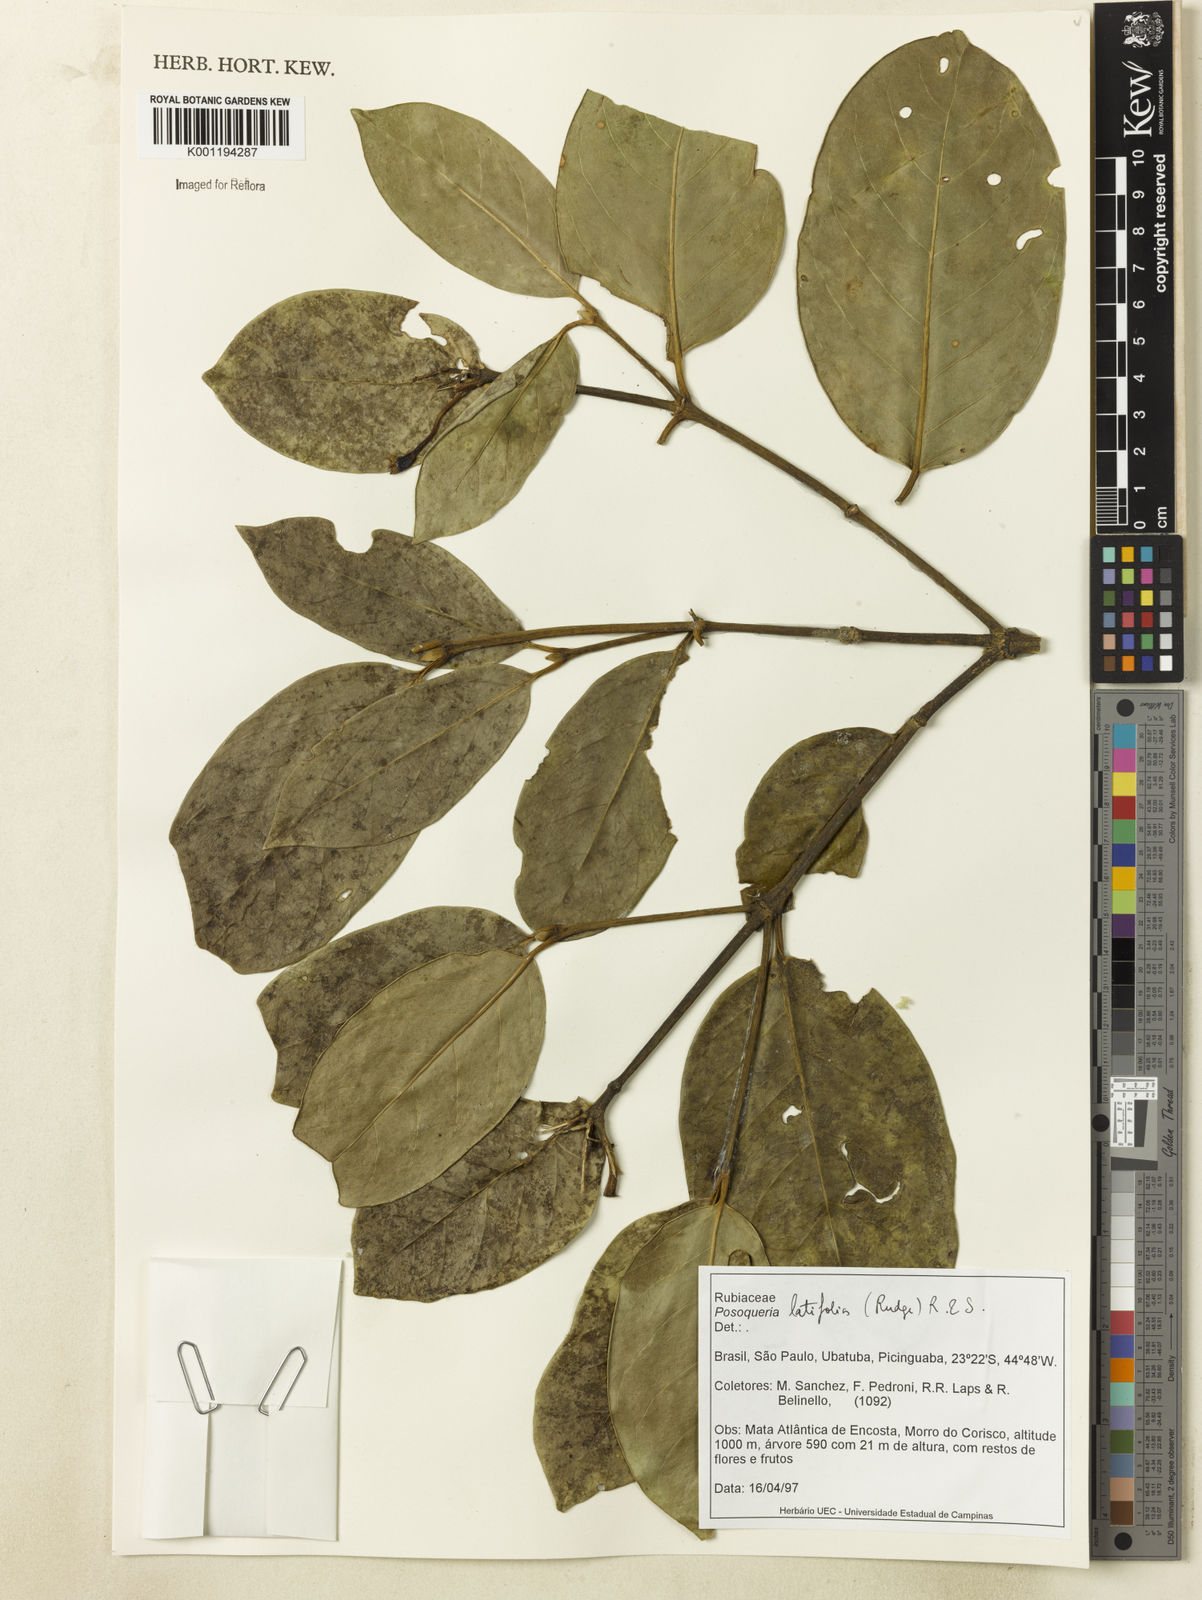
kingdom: Plantae
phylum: Tracheophyta
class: Magnoliopsida
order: Gentianales
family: Rubiaceae
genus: Posoqueria
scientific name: Posoqueria latifolia
